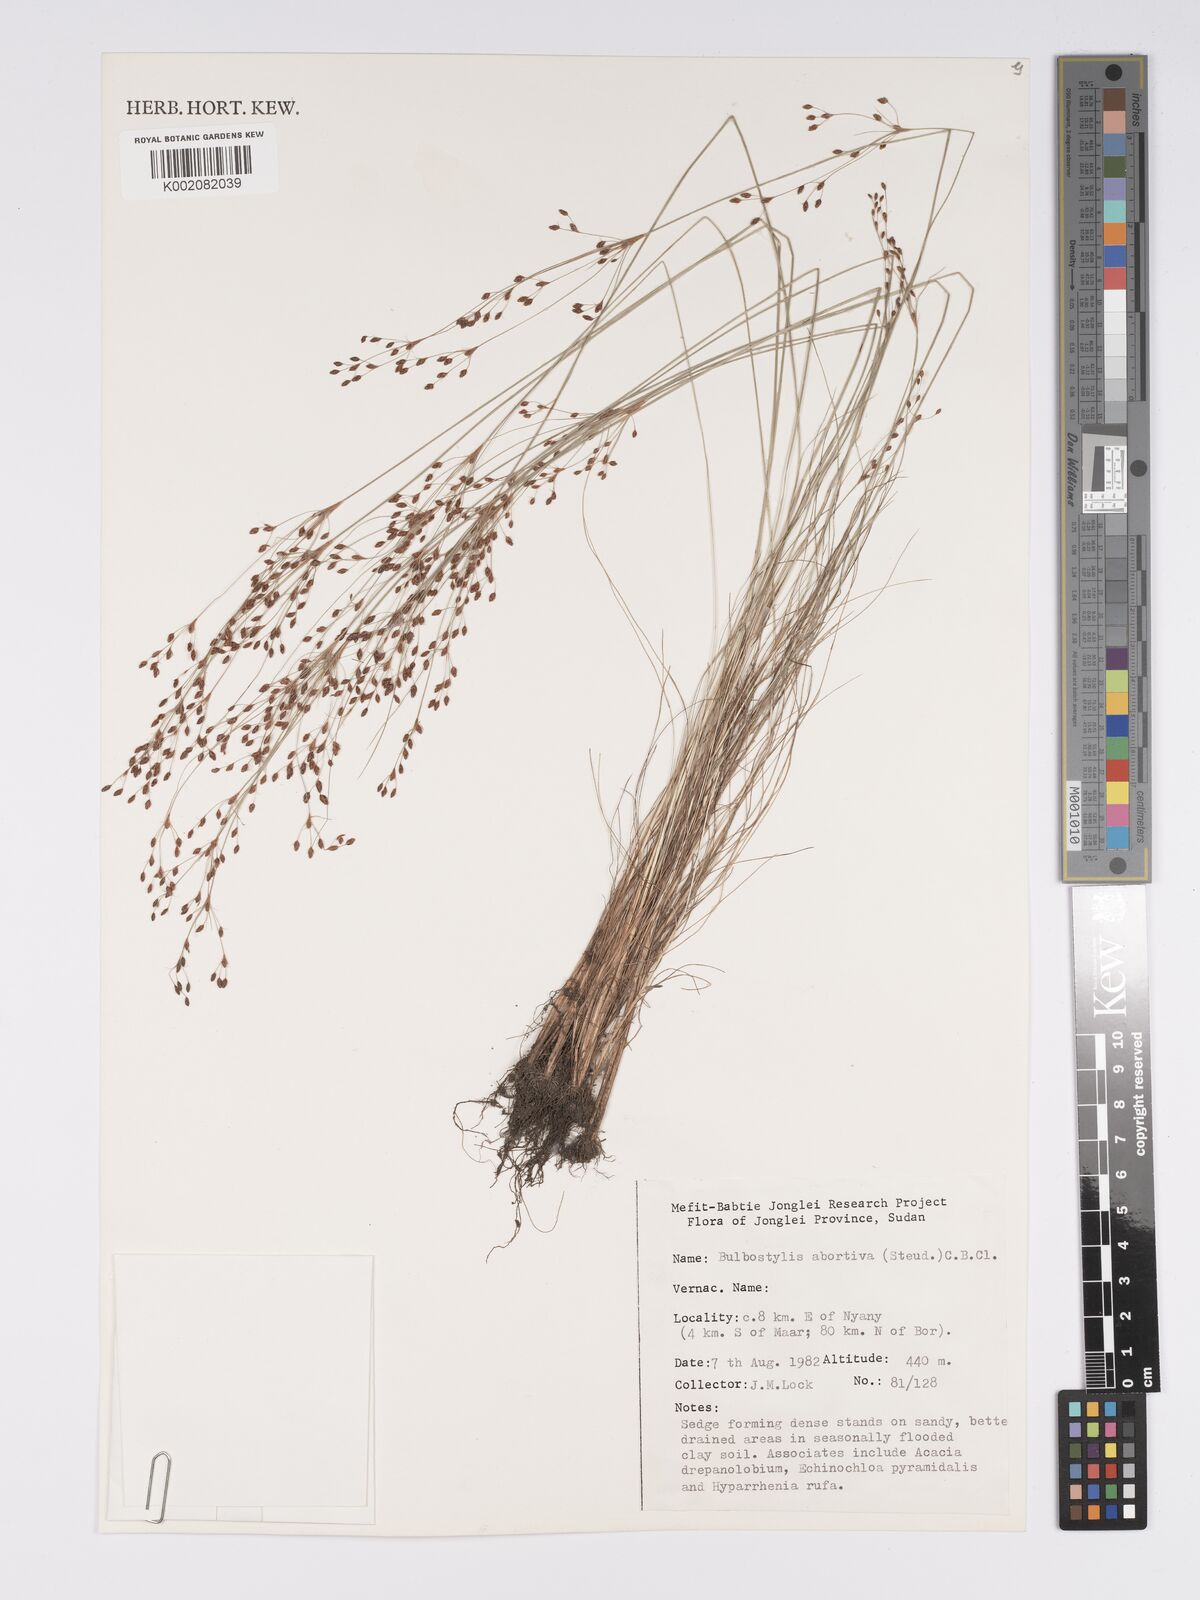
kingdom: Plantae
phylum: Tracheophyta
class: Liliopsida
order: Poales
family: Cyperaceae
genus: Bulbostylis
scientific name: Bulbostylis abortiva
